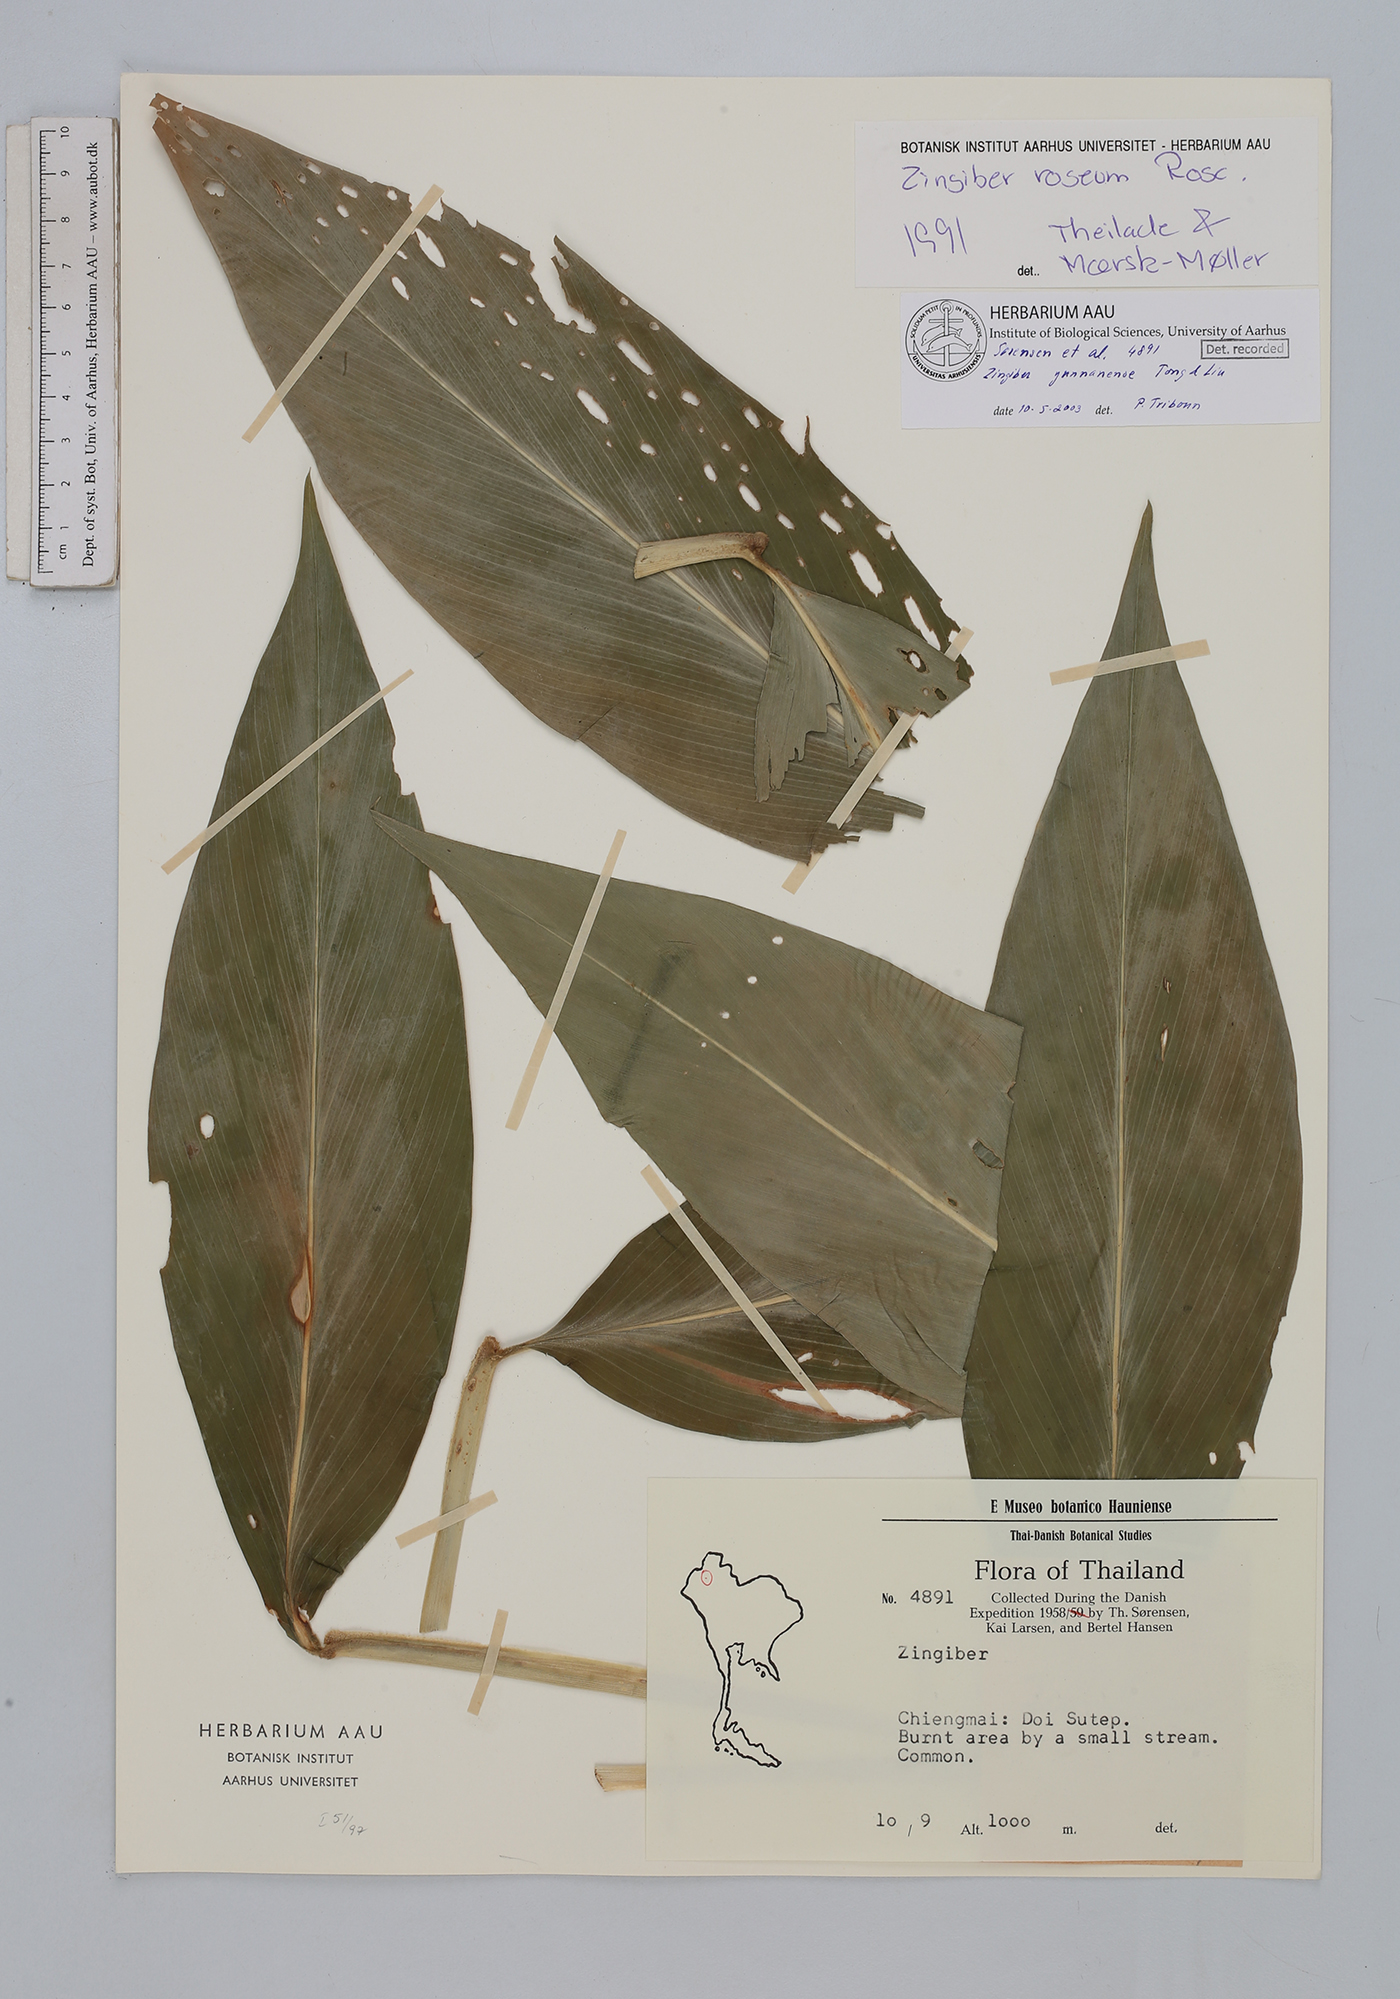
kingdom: Plantae
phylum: Tracheophyta
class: Liliopsida
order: Zingiberales
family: Zingiberaceae
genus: Zingiber
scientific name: Zingiber yunnanense
